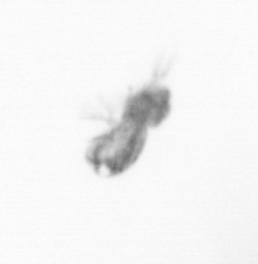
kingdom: Animalia
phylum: Arthropoda
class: Copepoda
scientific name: Copepoda
